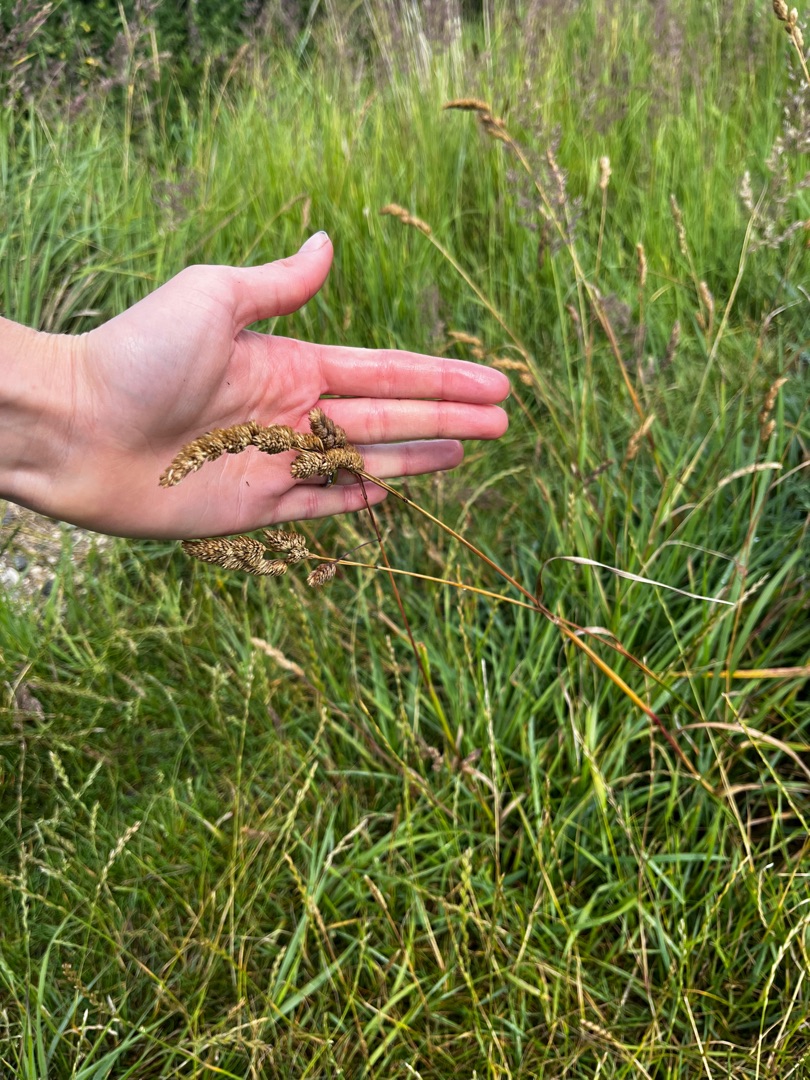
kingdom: Plantae
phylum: Tracheophyta
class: Liliopsida
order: Poales
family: Poaceae
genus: Dactylis
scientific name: Dactylis glomerata
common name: Almindelig hundegræs
